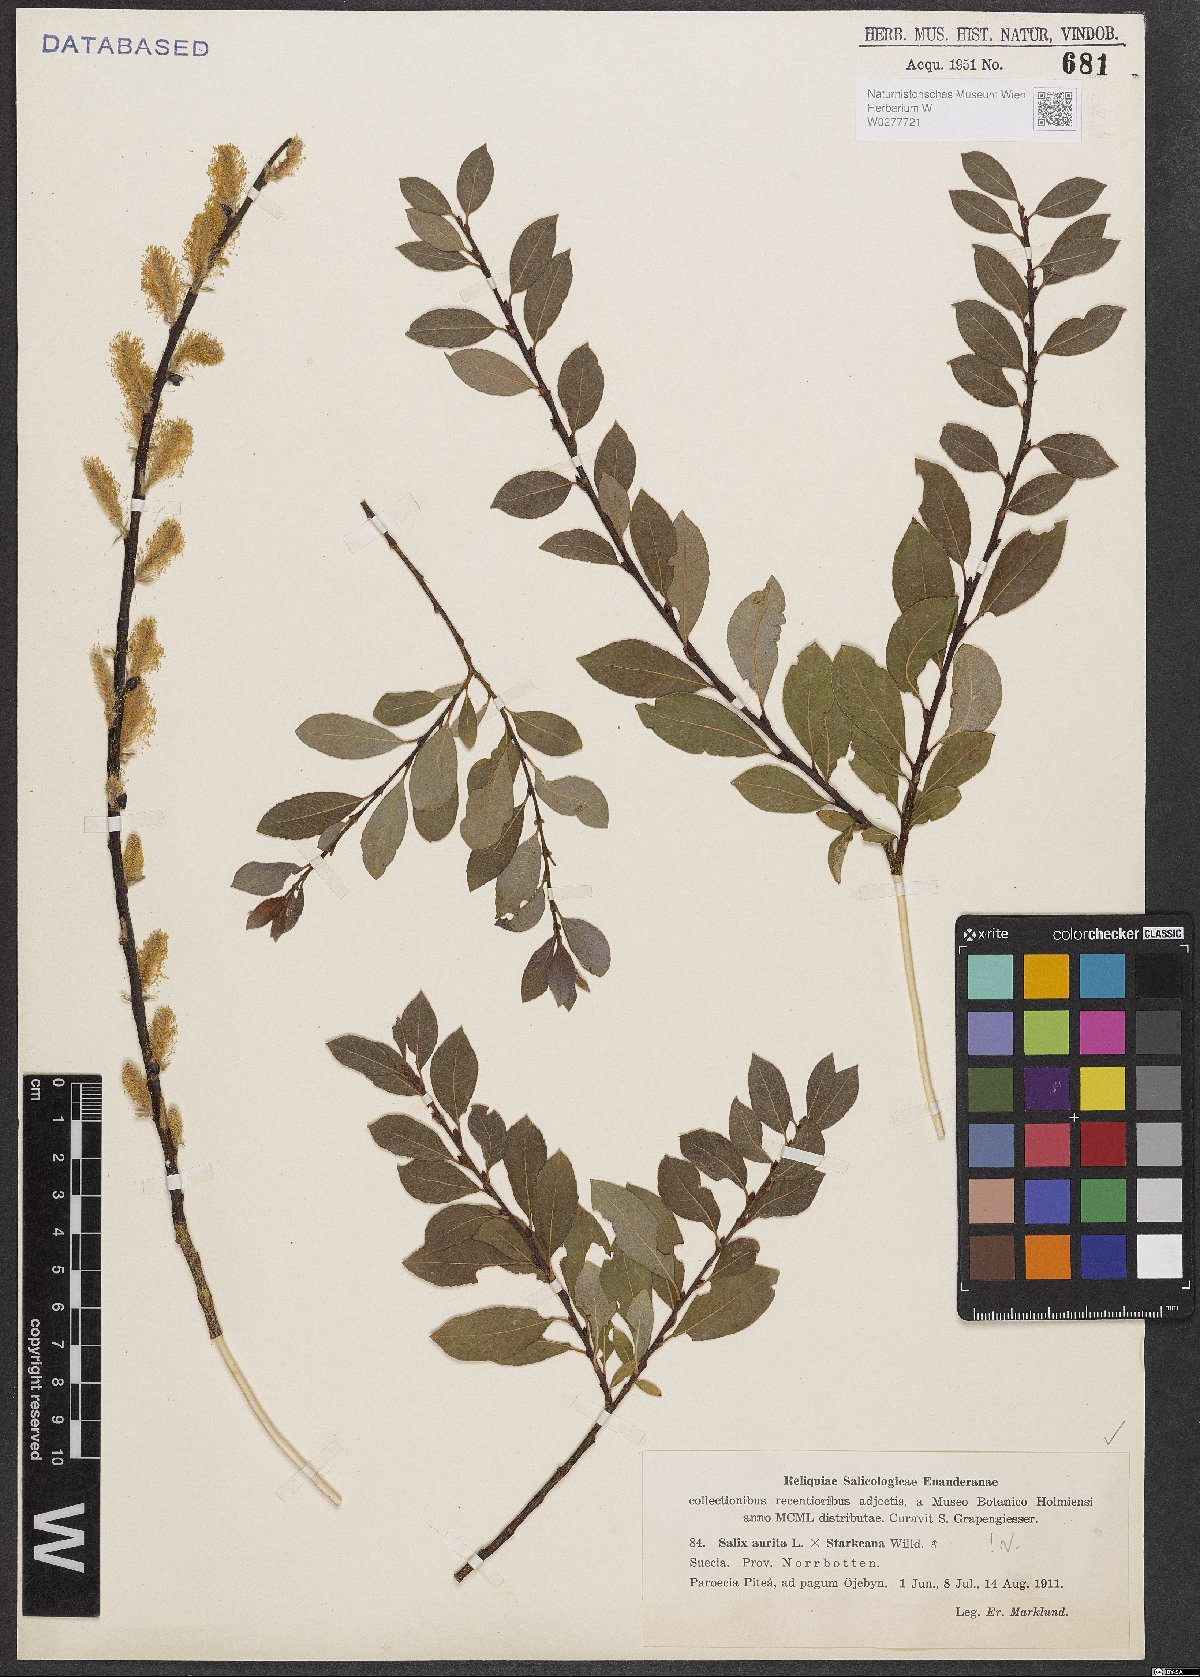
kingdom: Plantae
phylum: Tracheophyta
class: Magnoliopsida
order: Malpighiales
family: Salicaceae
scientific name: Salicaceae
